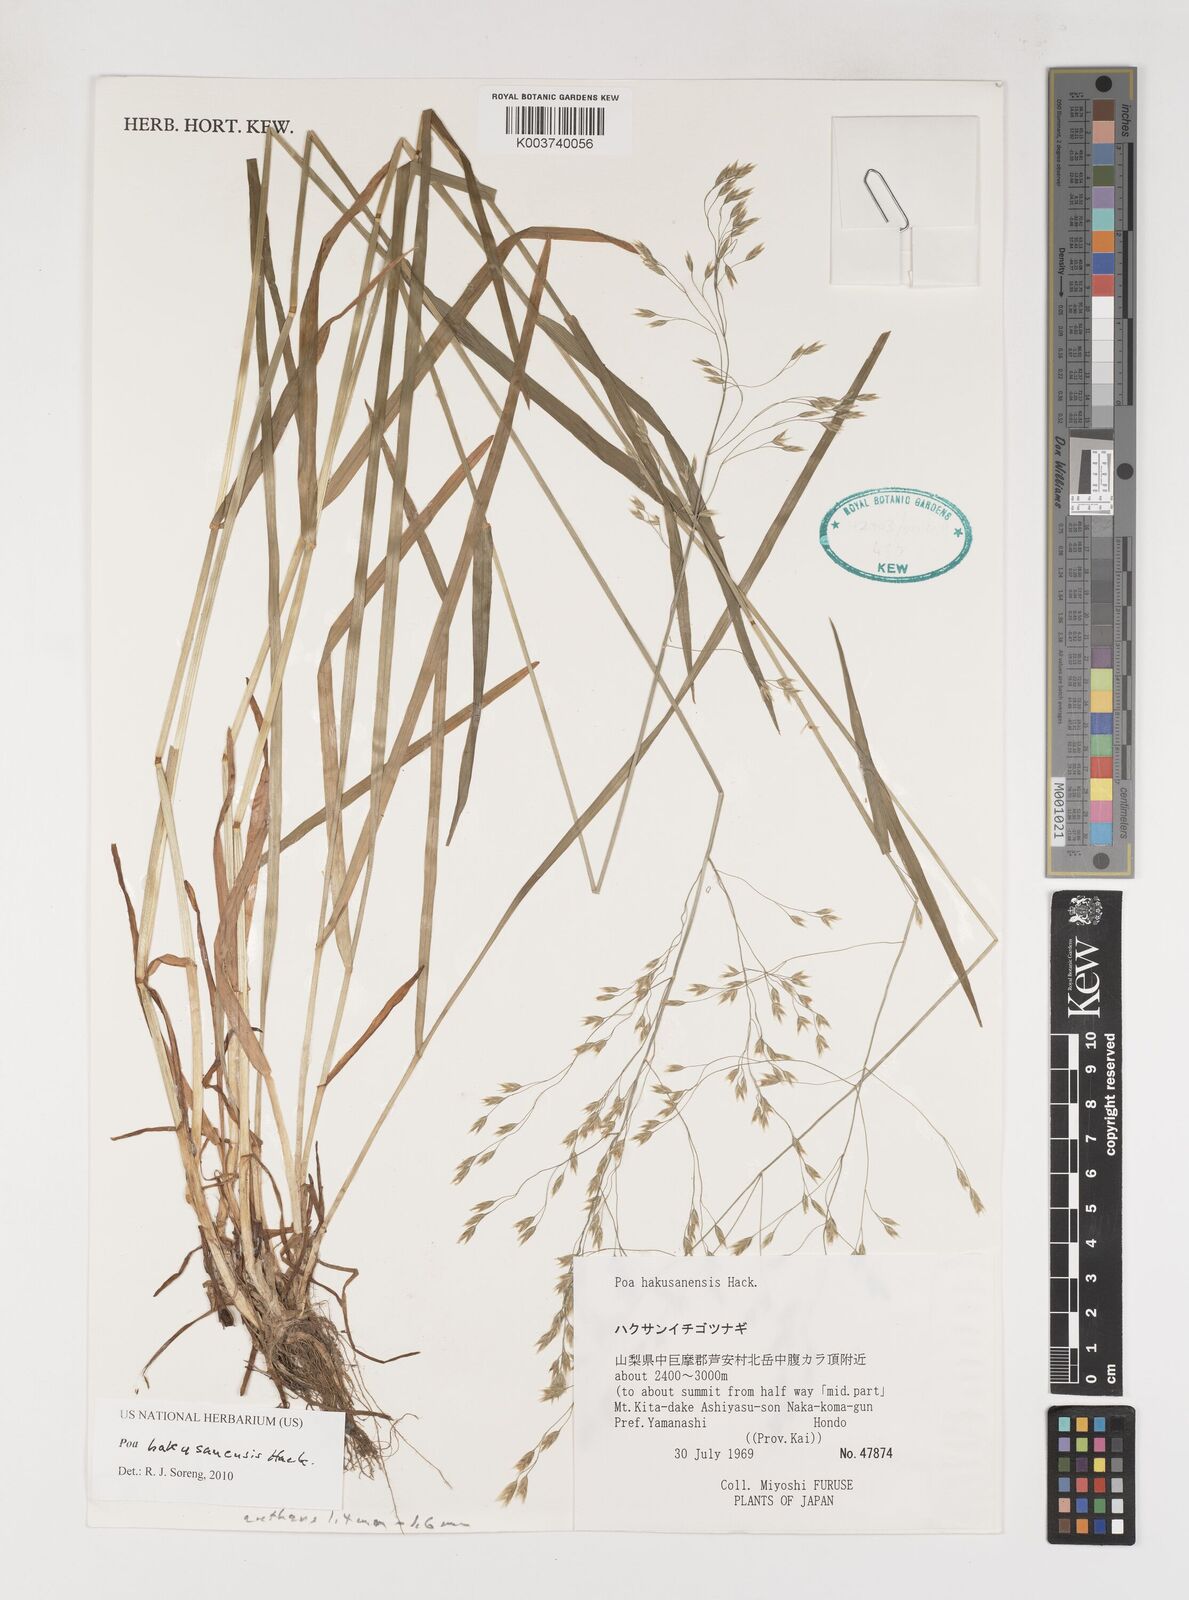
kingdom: Plantae
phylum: Tracheophyta
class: Liliopsida
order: Poales
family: Poaceae
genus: Poa
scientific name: Poa hakusanensis
